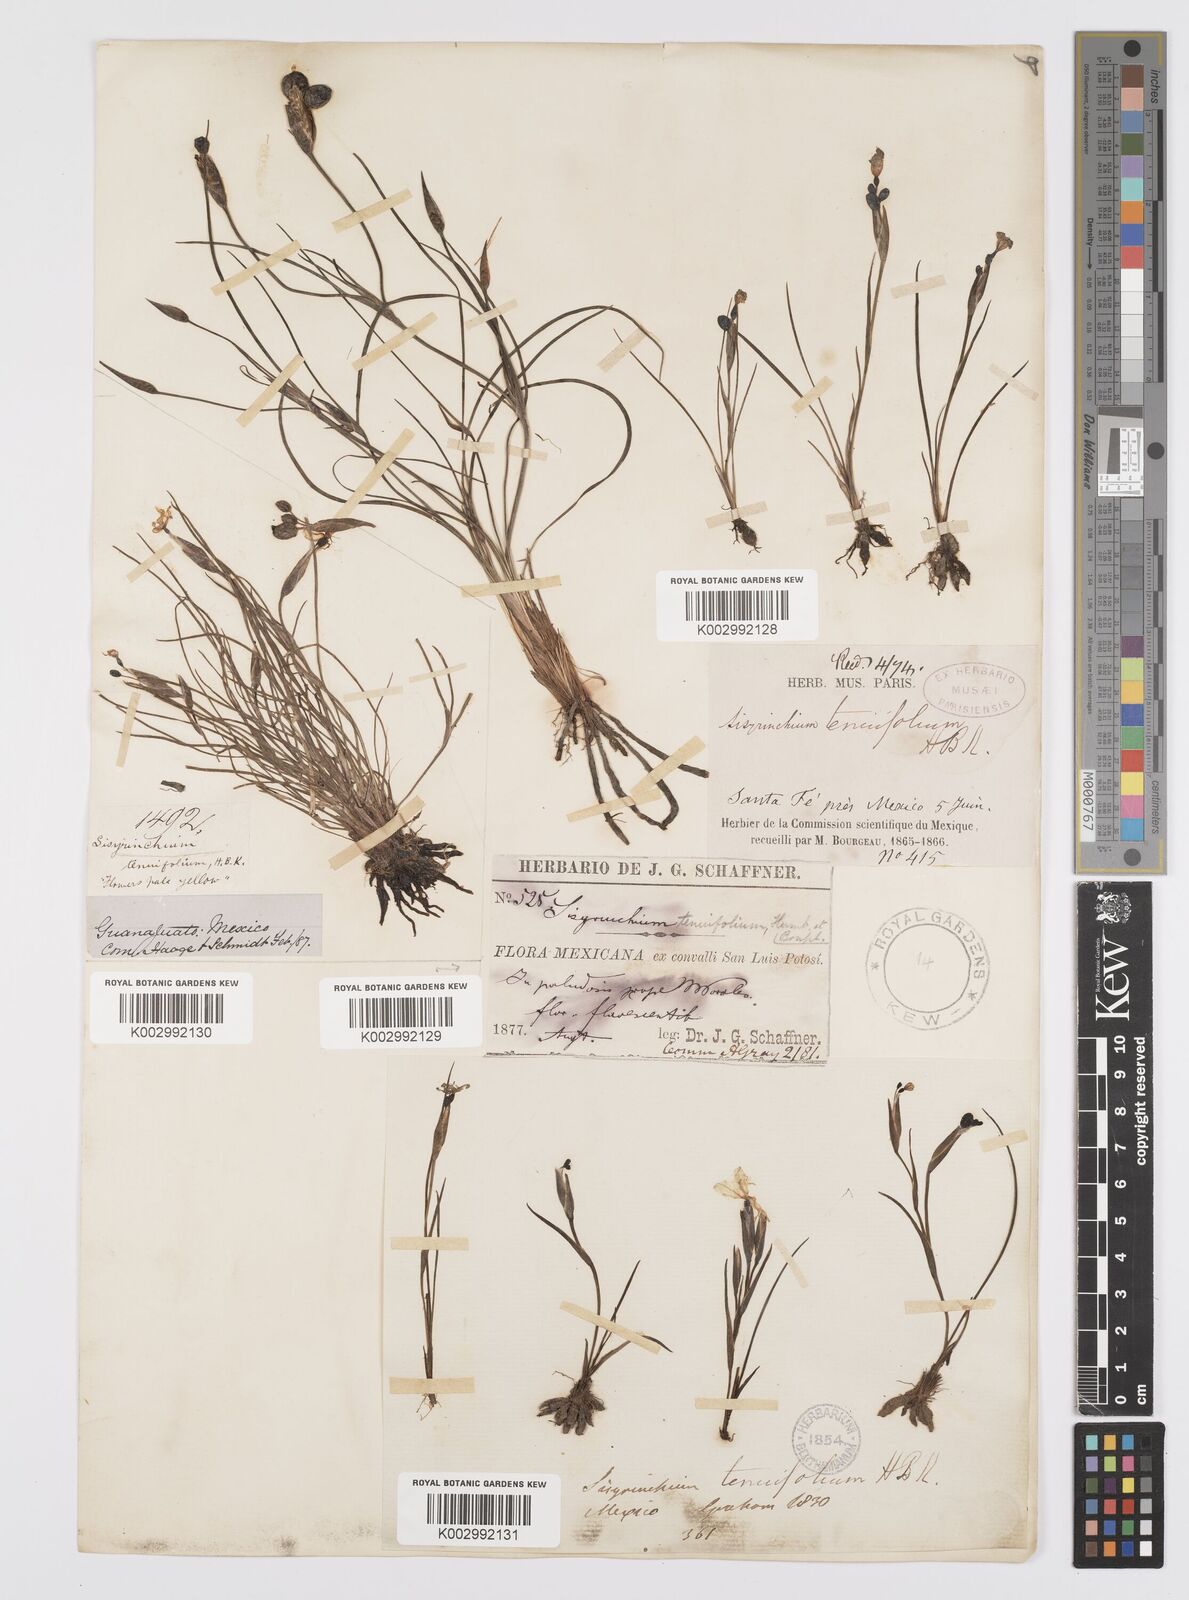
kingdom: Plantae
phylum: Tracheophyta
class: Liliopsida
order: Asparagales
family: Iridaceae
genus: Sisyrinchium
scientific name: Sisyrinchium langloisii
